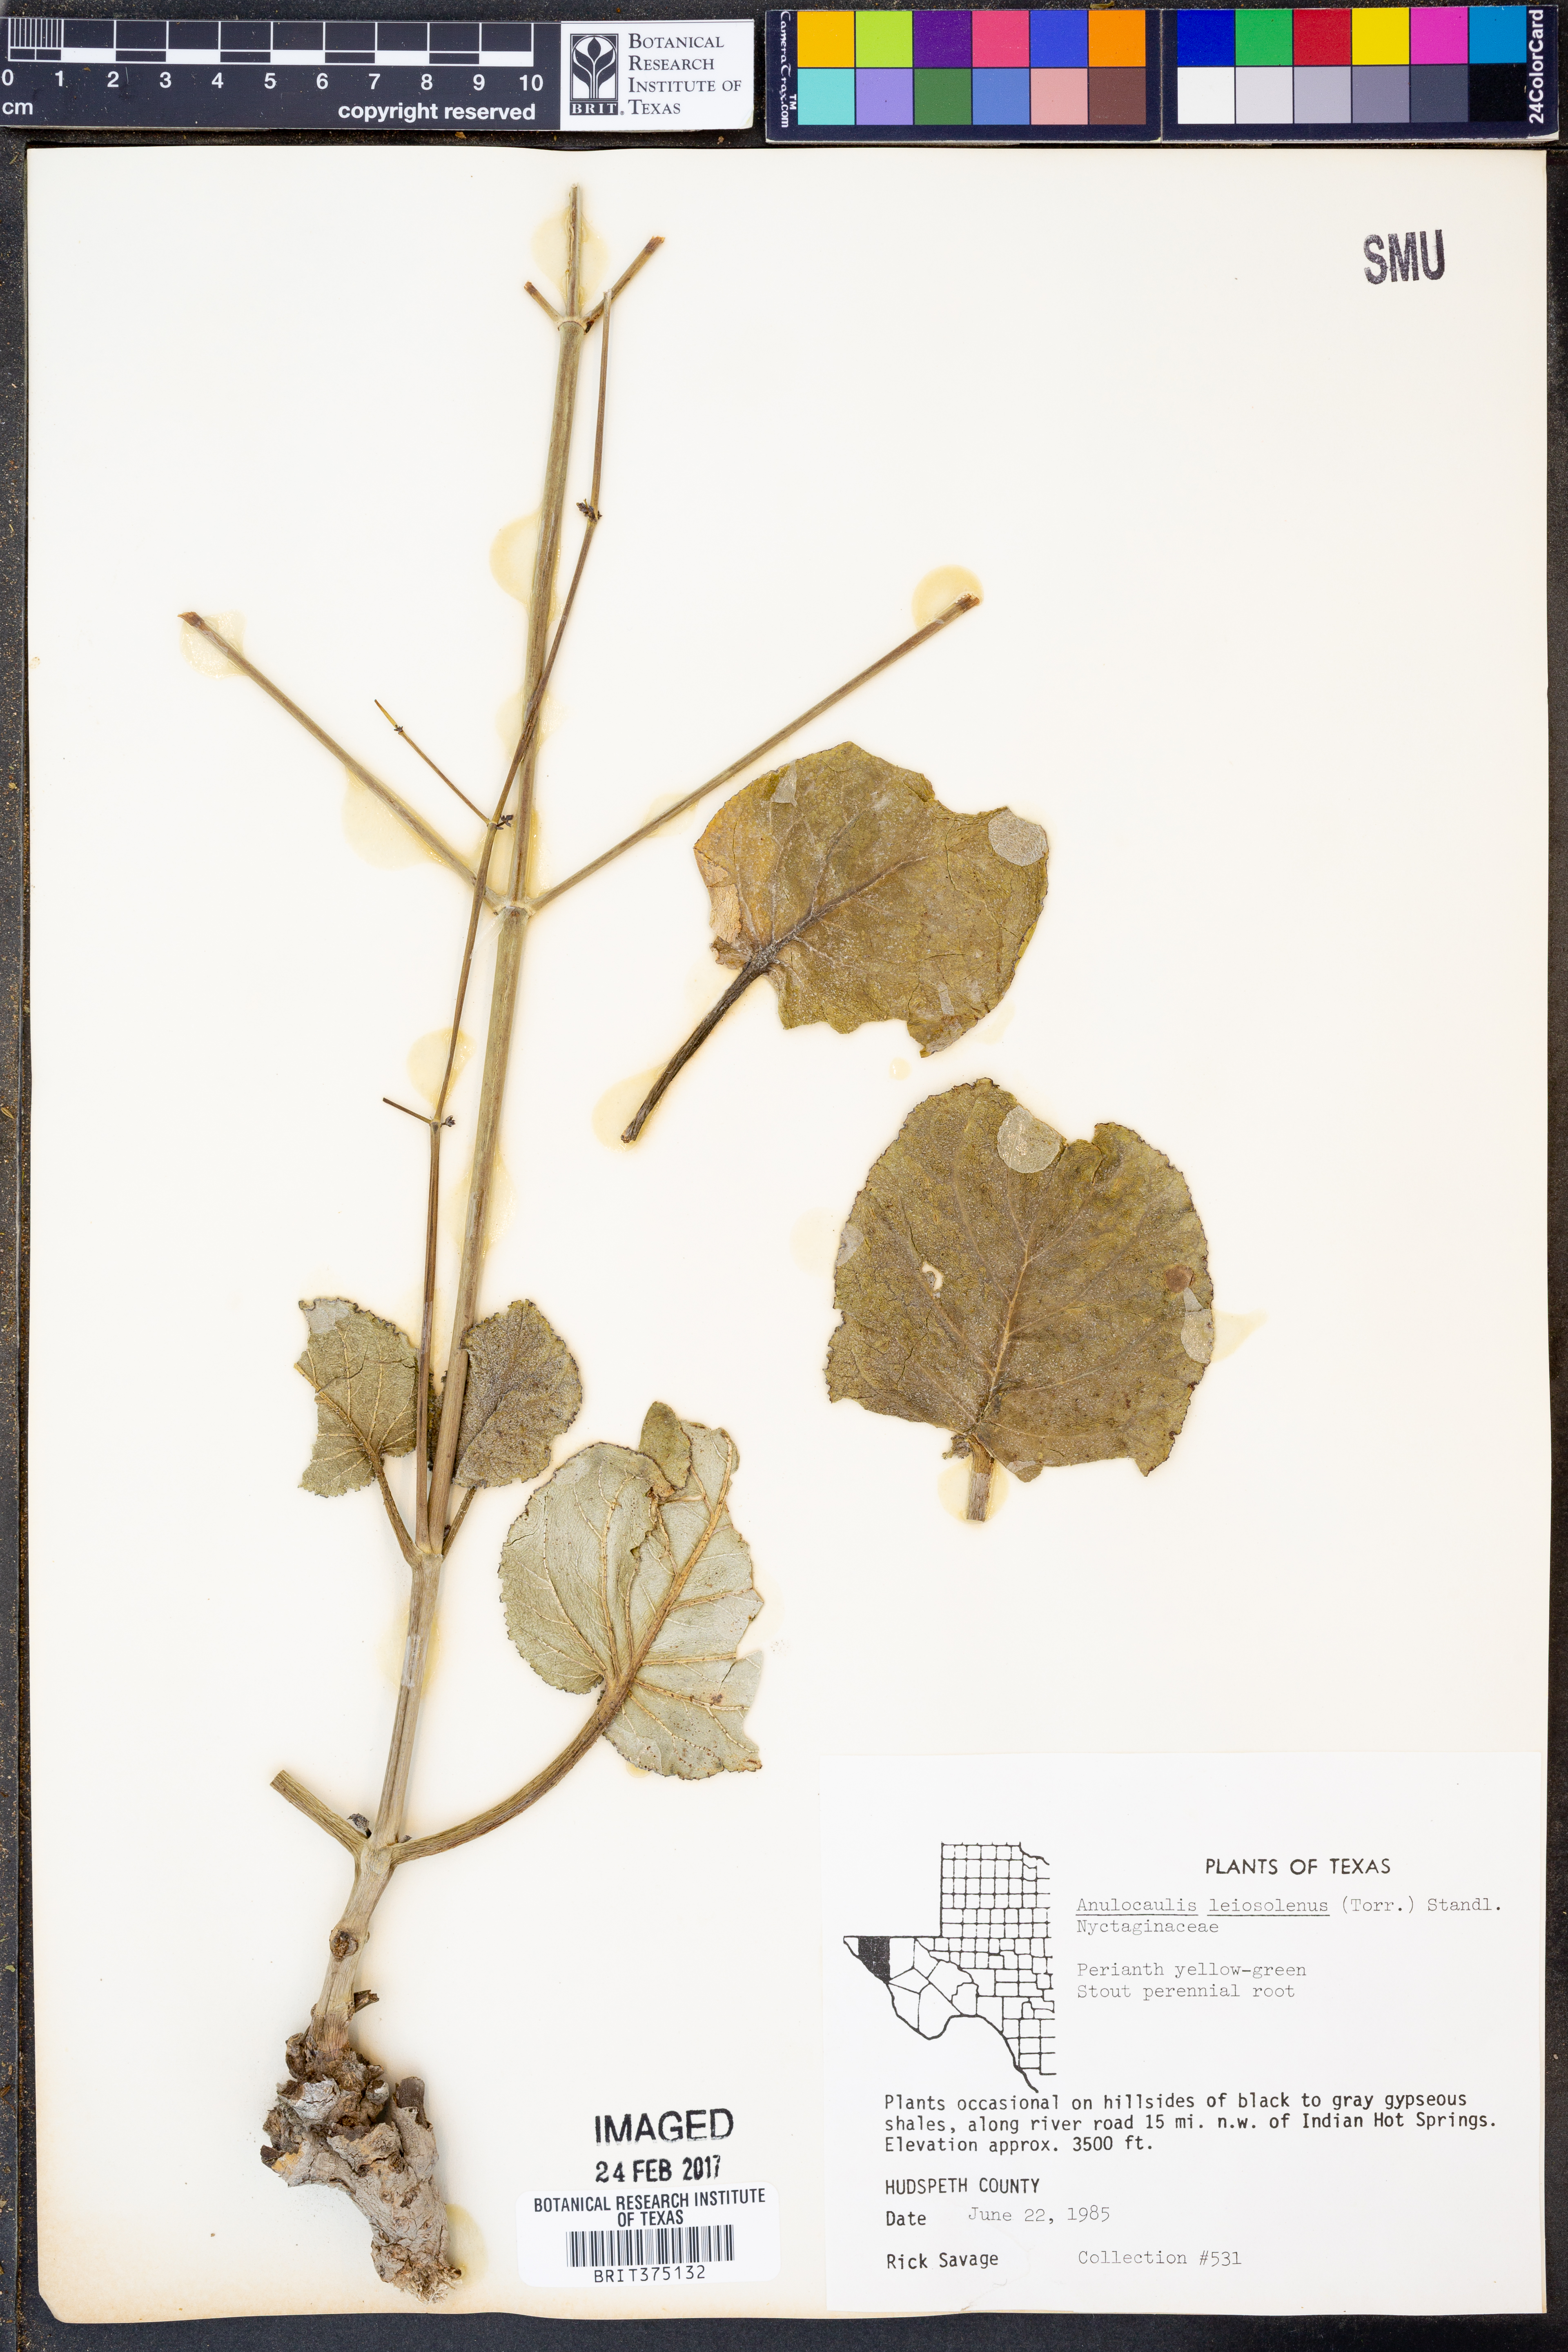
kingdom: Plantae
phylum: Tracheophyta
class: Magnoliopsida
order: Caryophyllales
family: Nyctaginaceae
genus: Anulocaulis
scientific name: Anulocaulis leiosolenus
